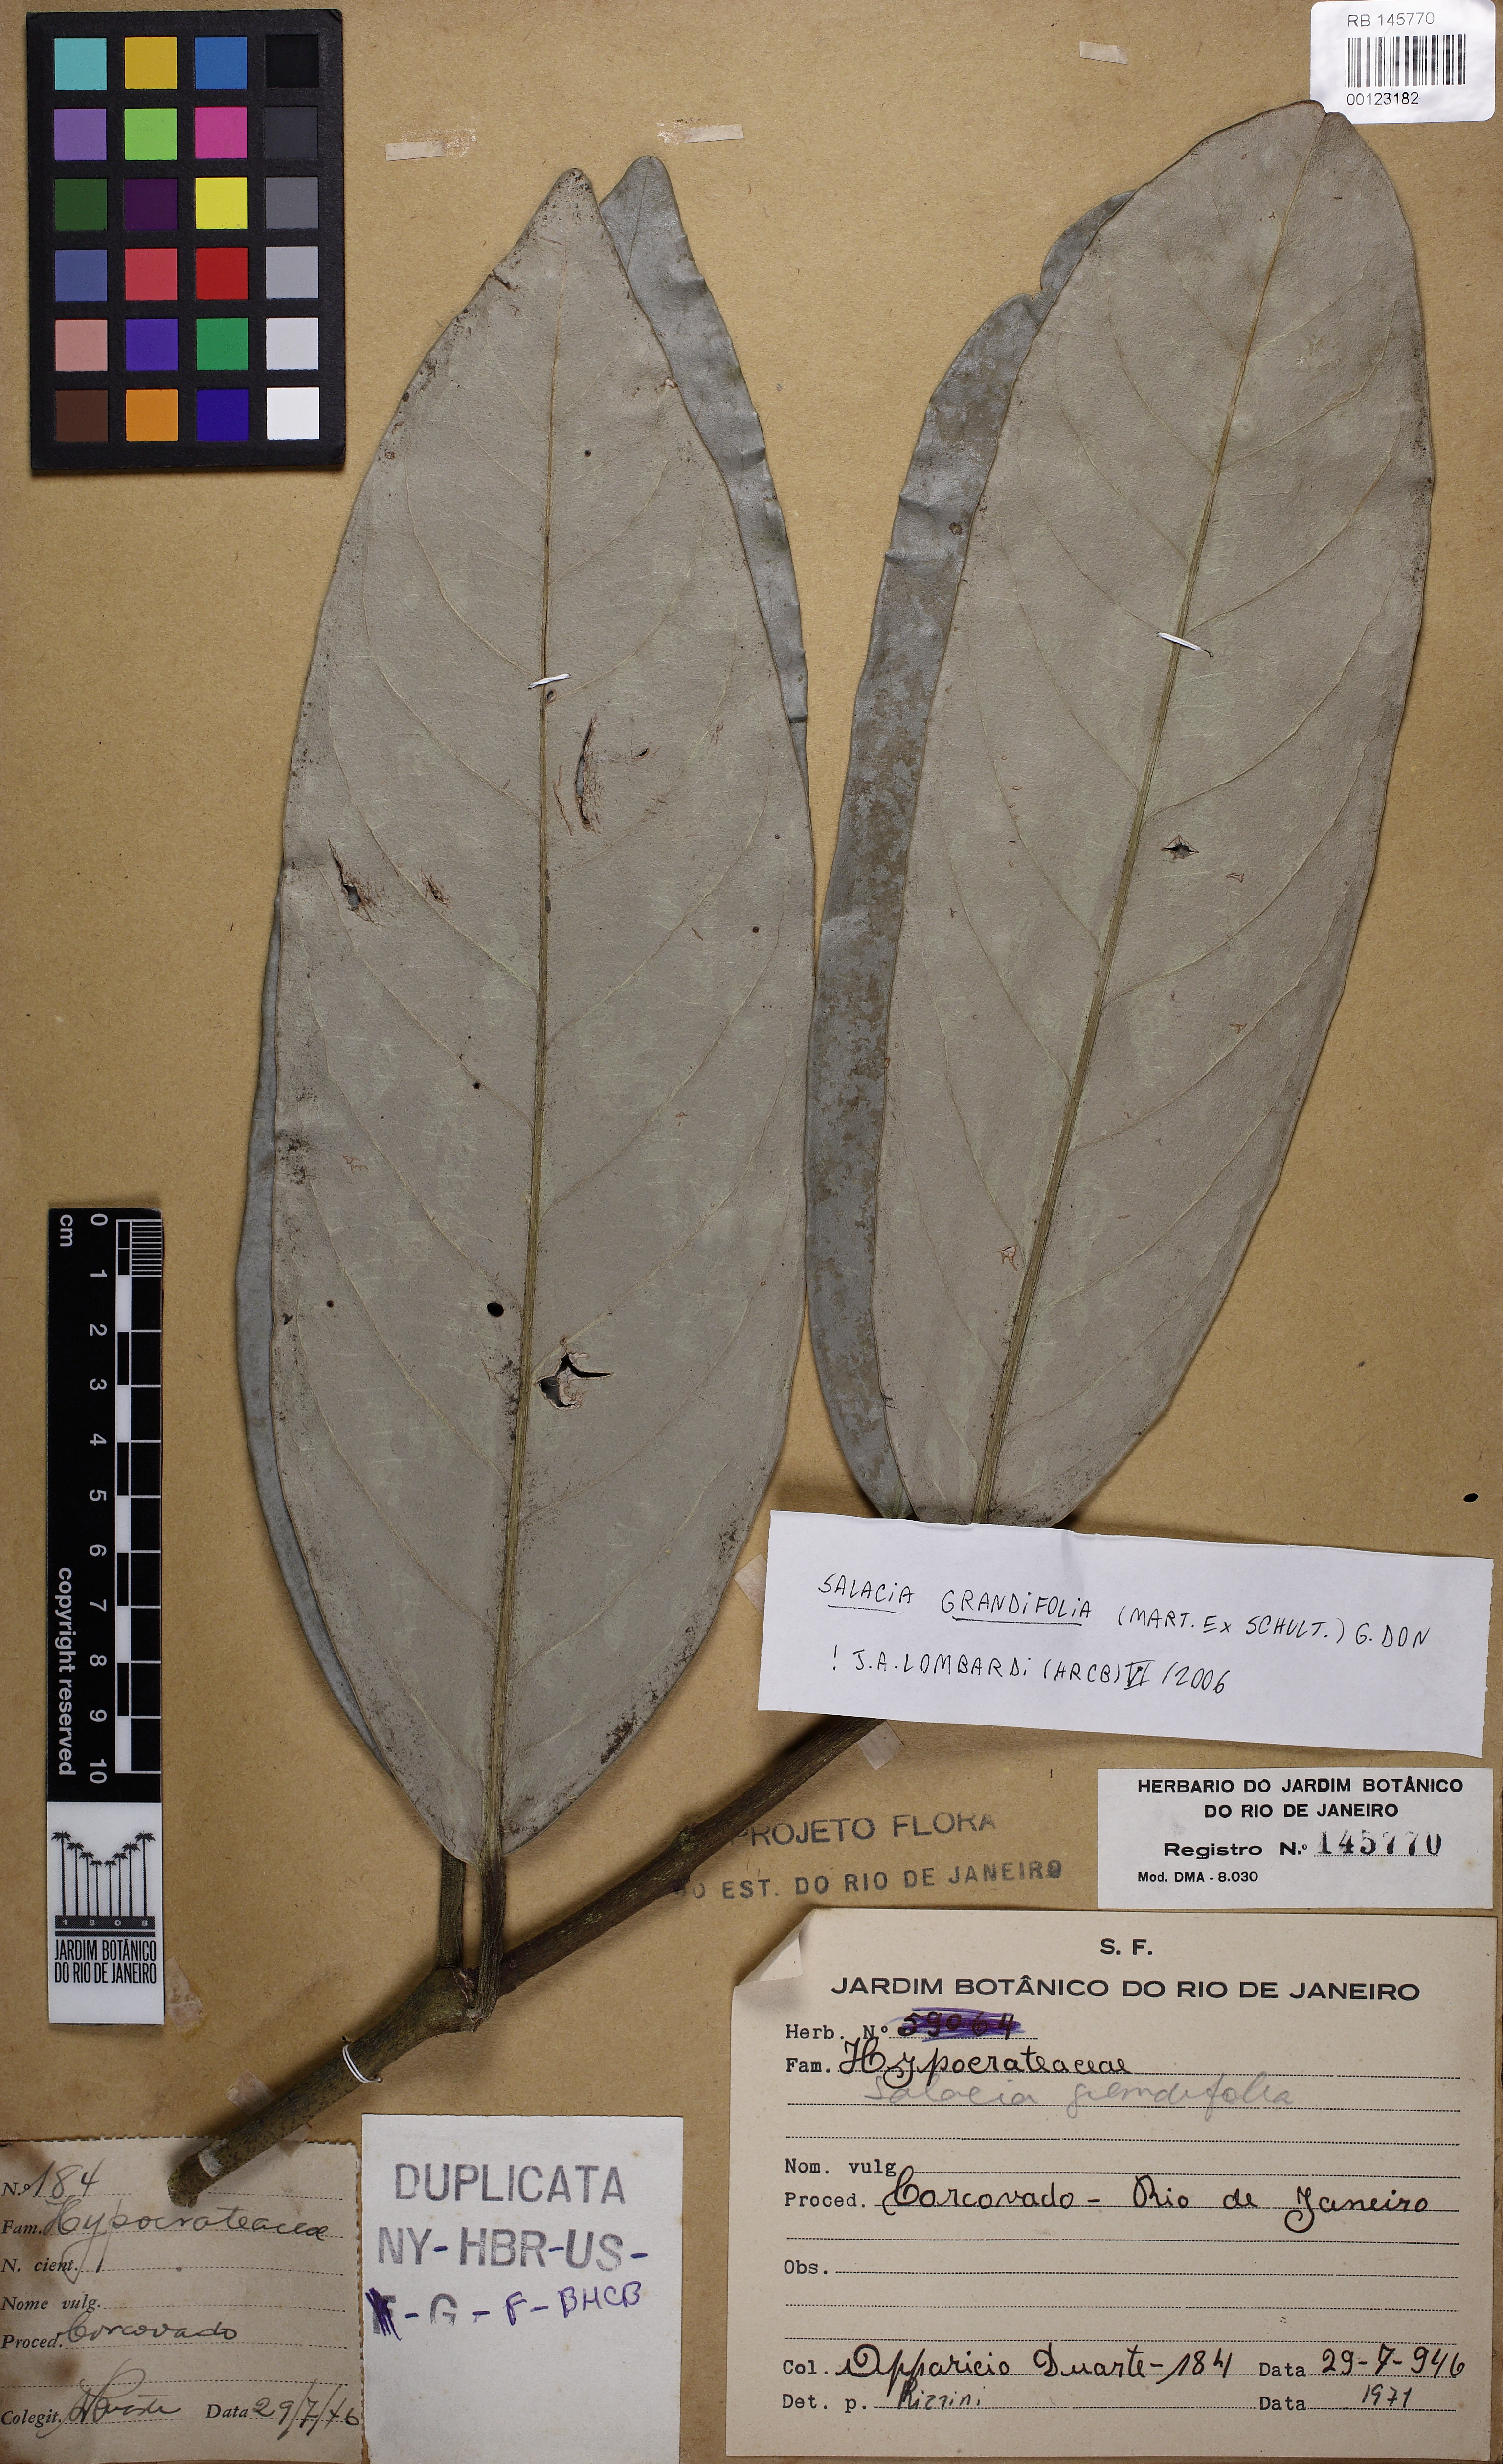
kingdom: Plantae
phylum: Tracheophyta
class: Magnoliopsida
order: Celastrales
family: Celastraceae
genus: Salacia
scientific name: Salacia grandifolia
